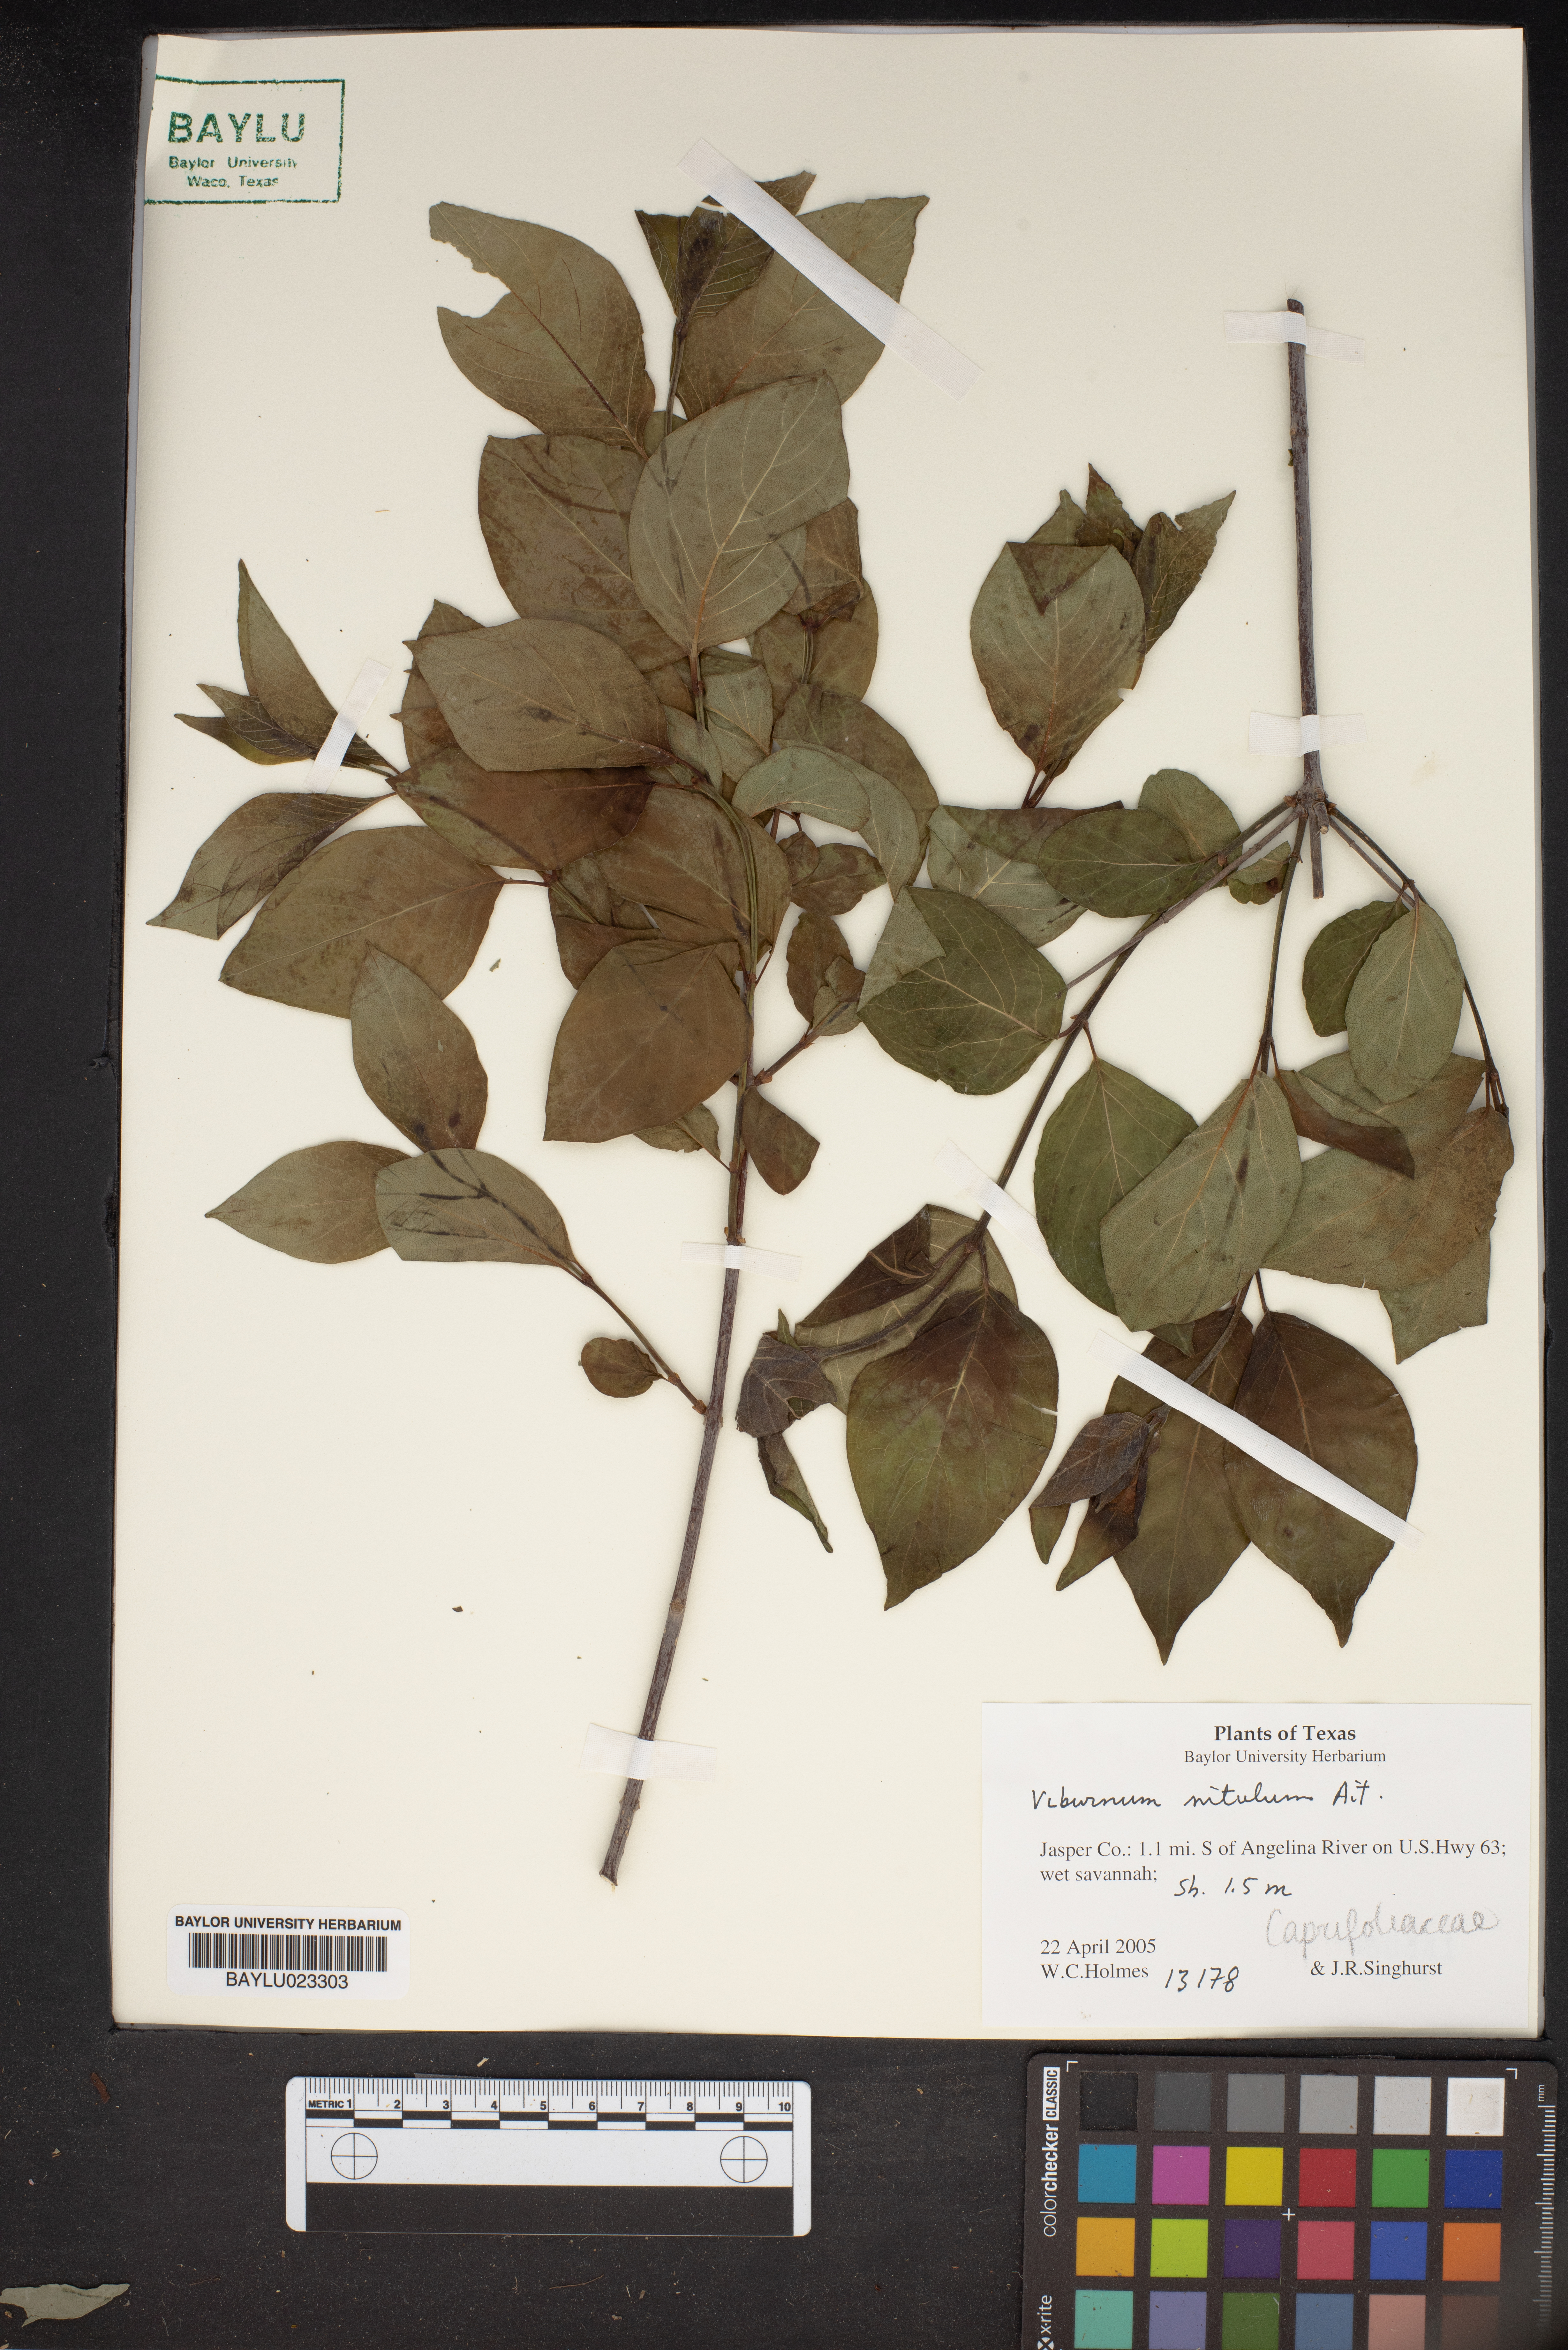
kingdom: Plantae
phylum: Tracheophyta
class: Magnoliopsida
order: Dipsacales
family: Viburnaceae
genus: Viburnum
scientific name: Viburnum cassinoides
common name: Swamp haw
